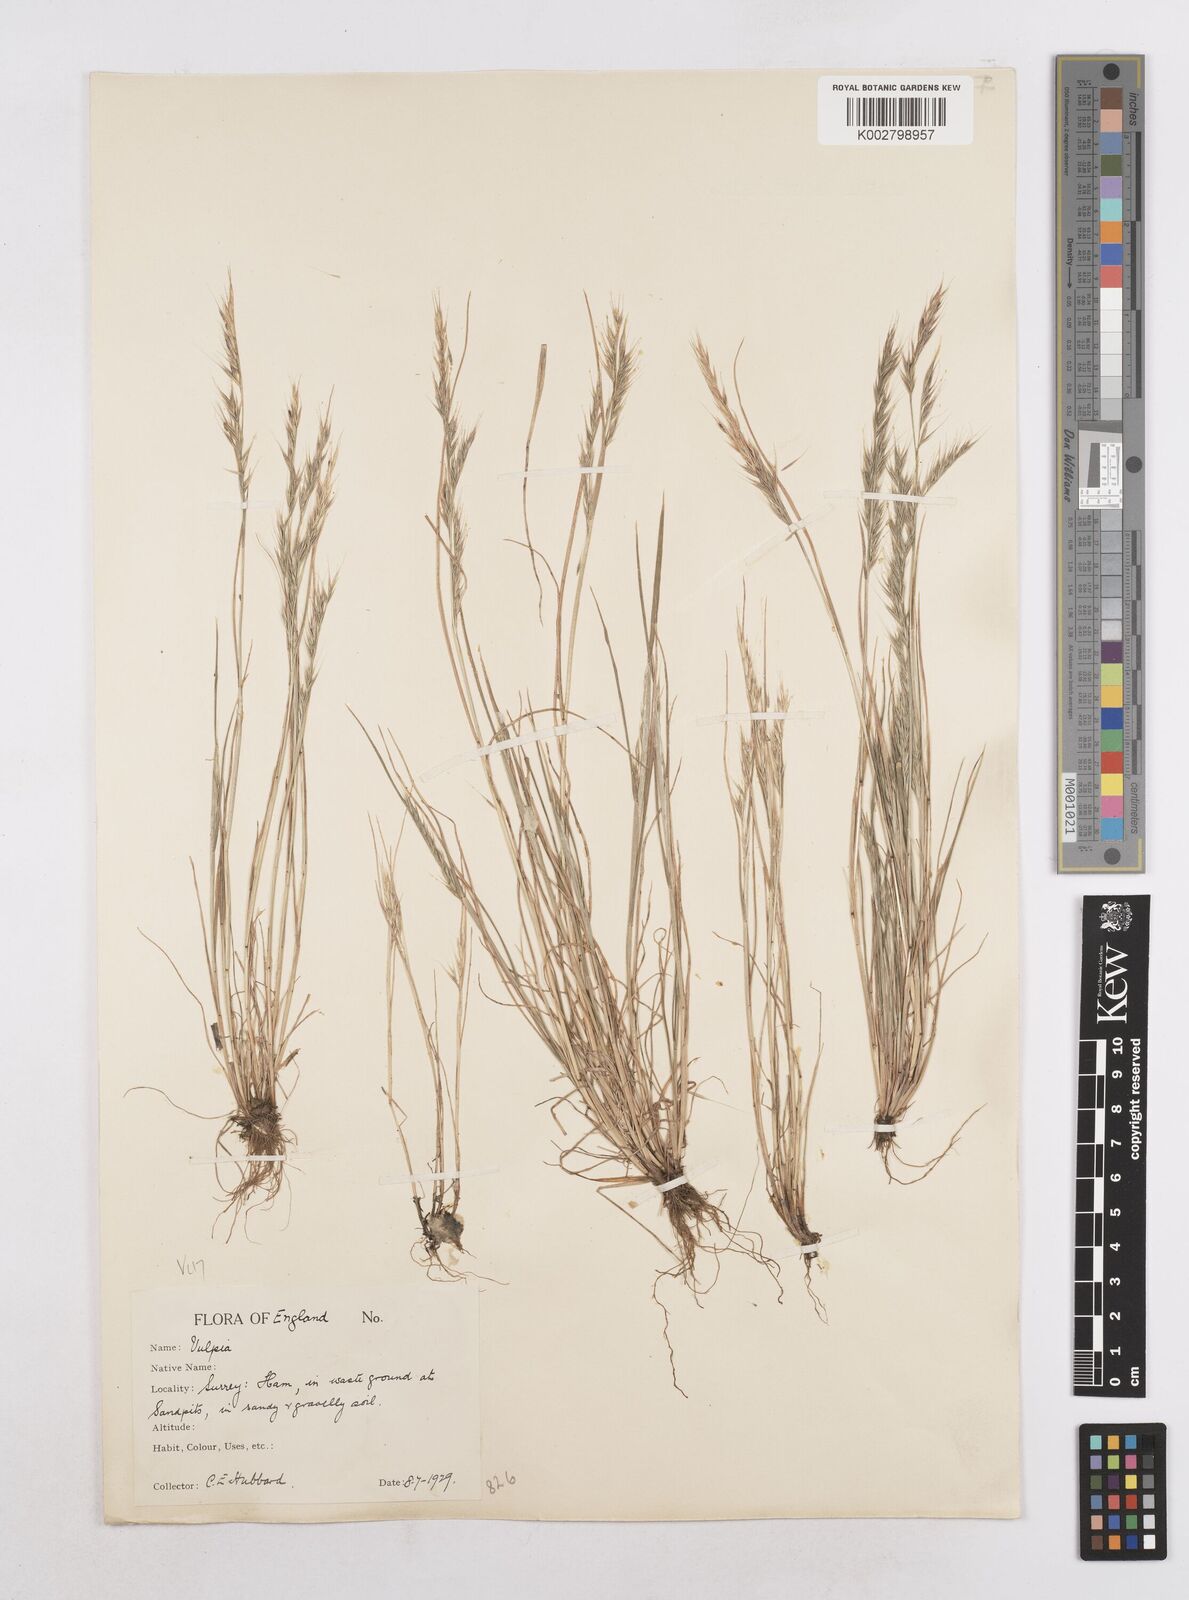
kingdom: Plantae
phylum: Tracheophyta
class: Liliopsida
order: Poales
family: Poaceae
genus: Festuca
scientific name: Festuca bromoides
